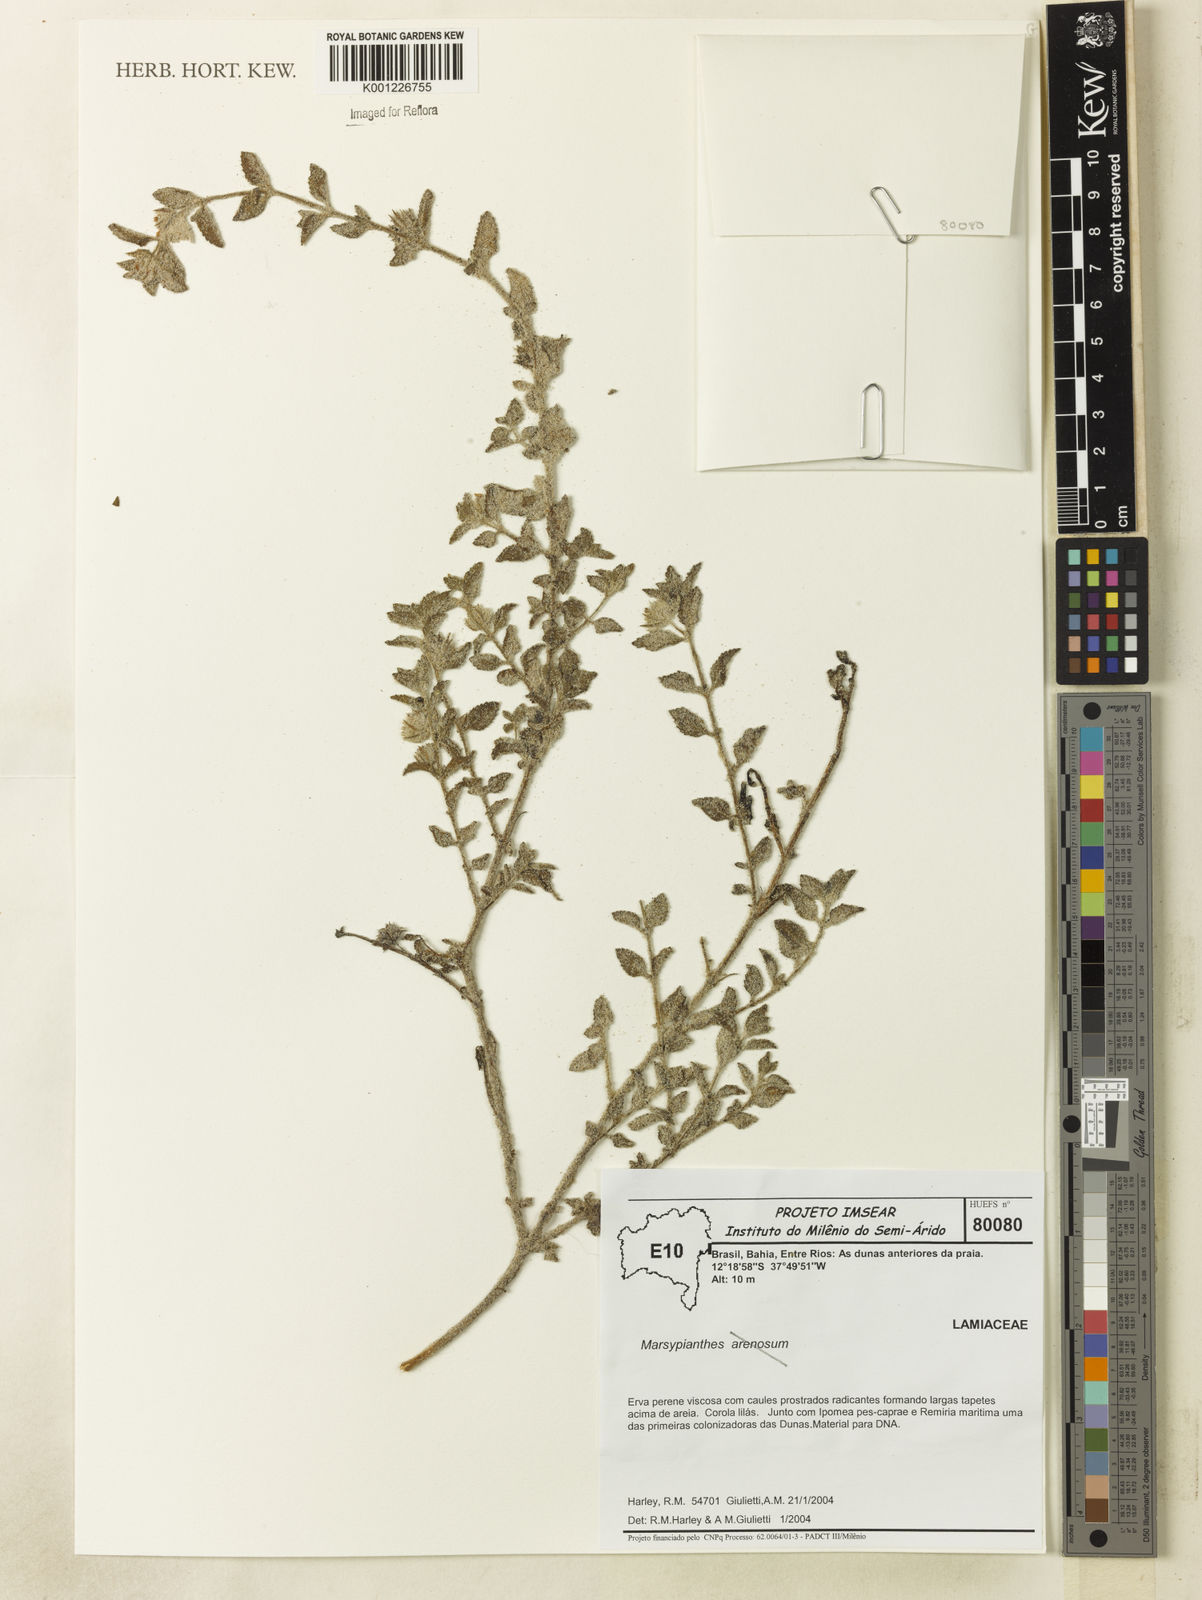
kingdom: Plantae
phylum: Tracheophyta
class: Magnoliopsida
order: Lamiales
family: Lamiaceae
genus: Marsypianthes
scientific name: Marsypianthes
